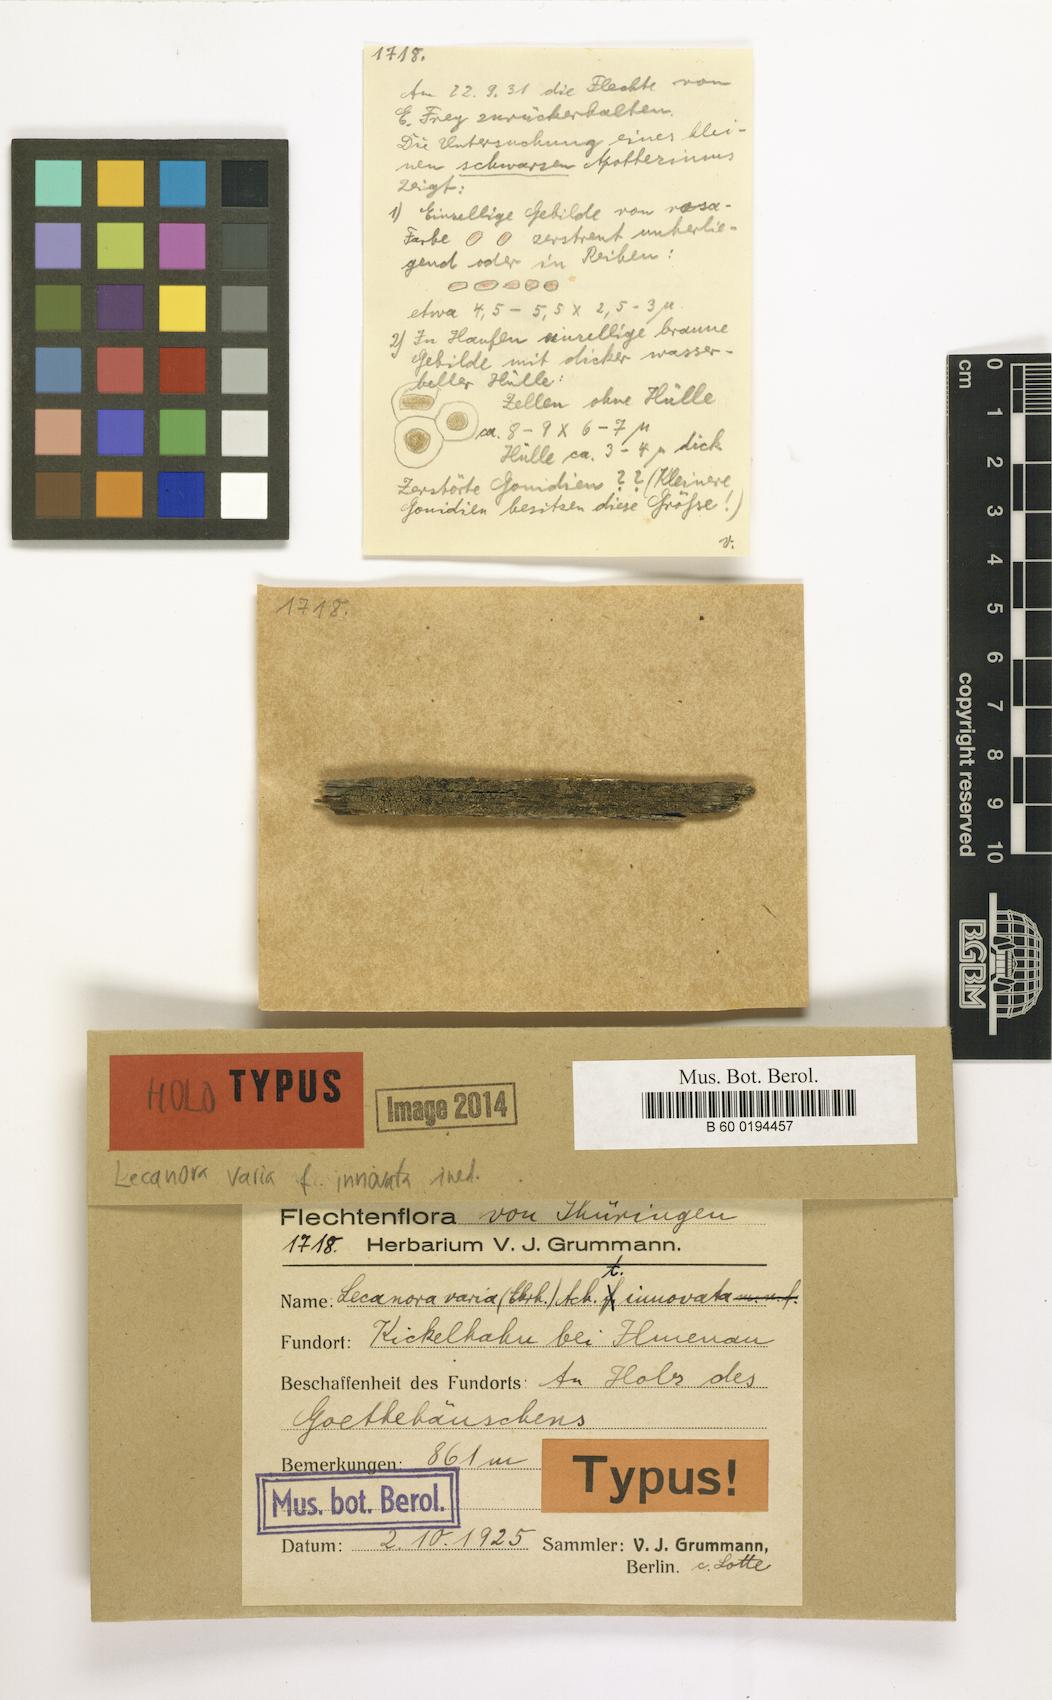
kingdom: Fungi
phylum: Ascomycota
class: Lecanoromycetes
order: Lecanorales
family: Lecanoraceae
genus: Straminella
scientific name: Straminella varia
